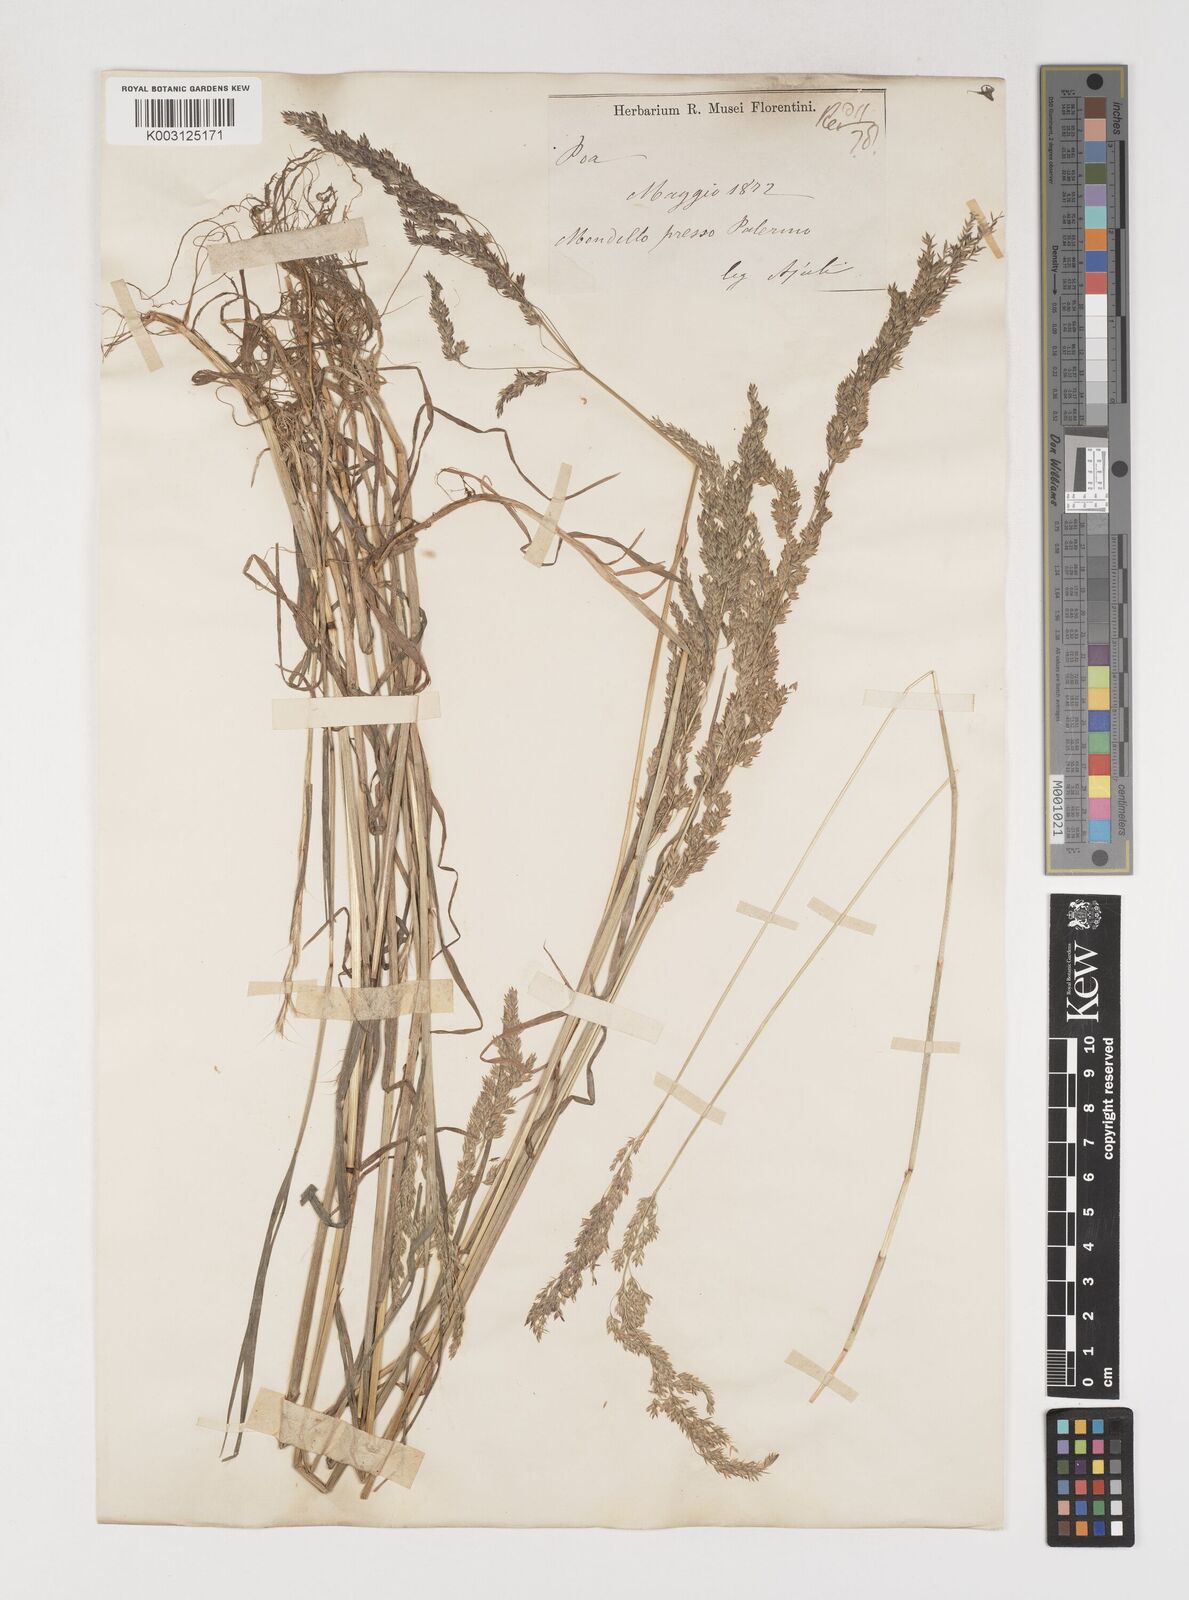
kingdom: Plantae
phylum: Tracheophyta
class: Liliopsida
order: Poales
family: Poaceae
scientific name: Poaceae
